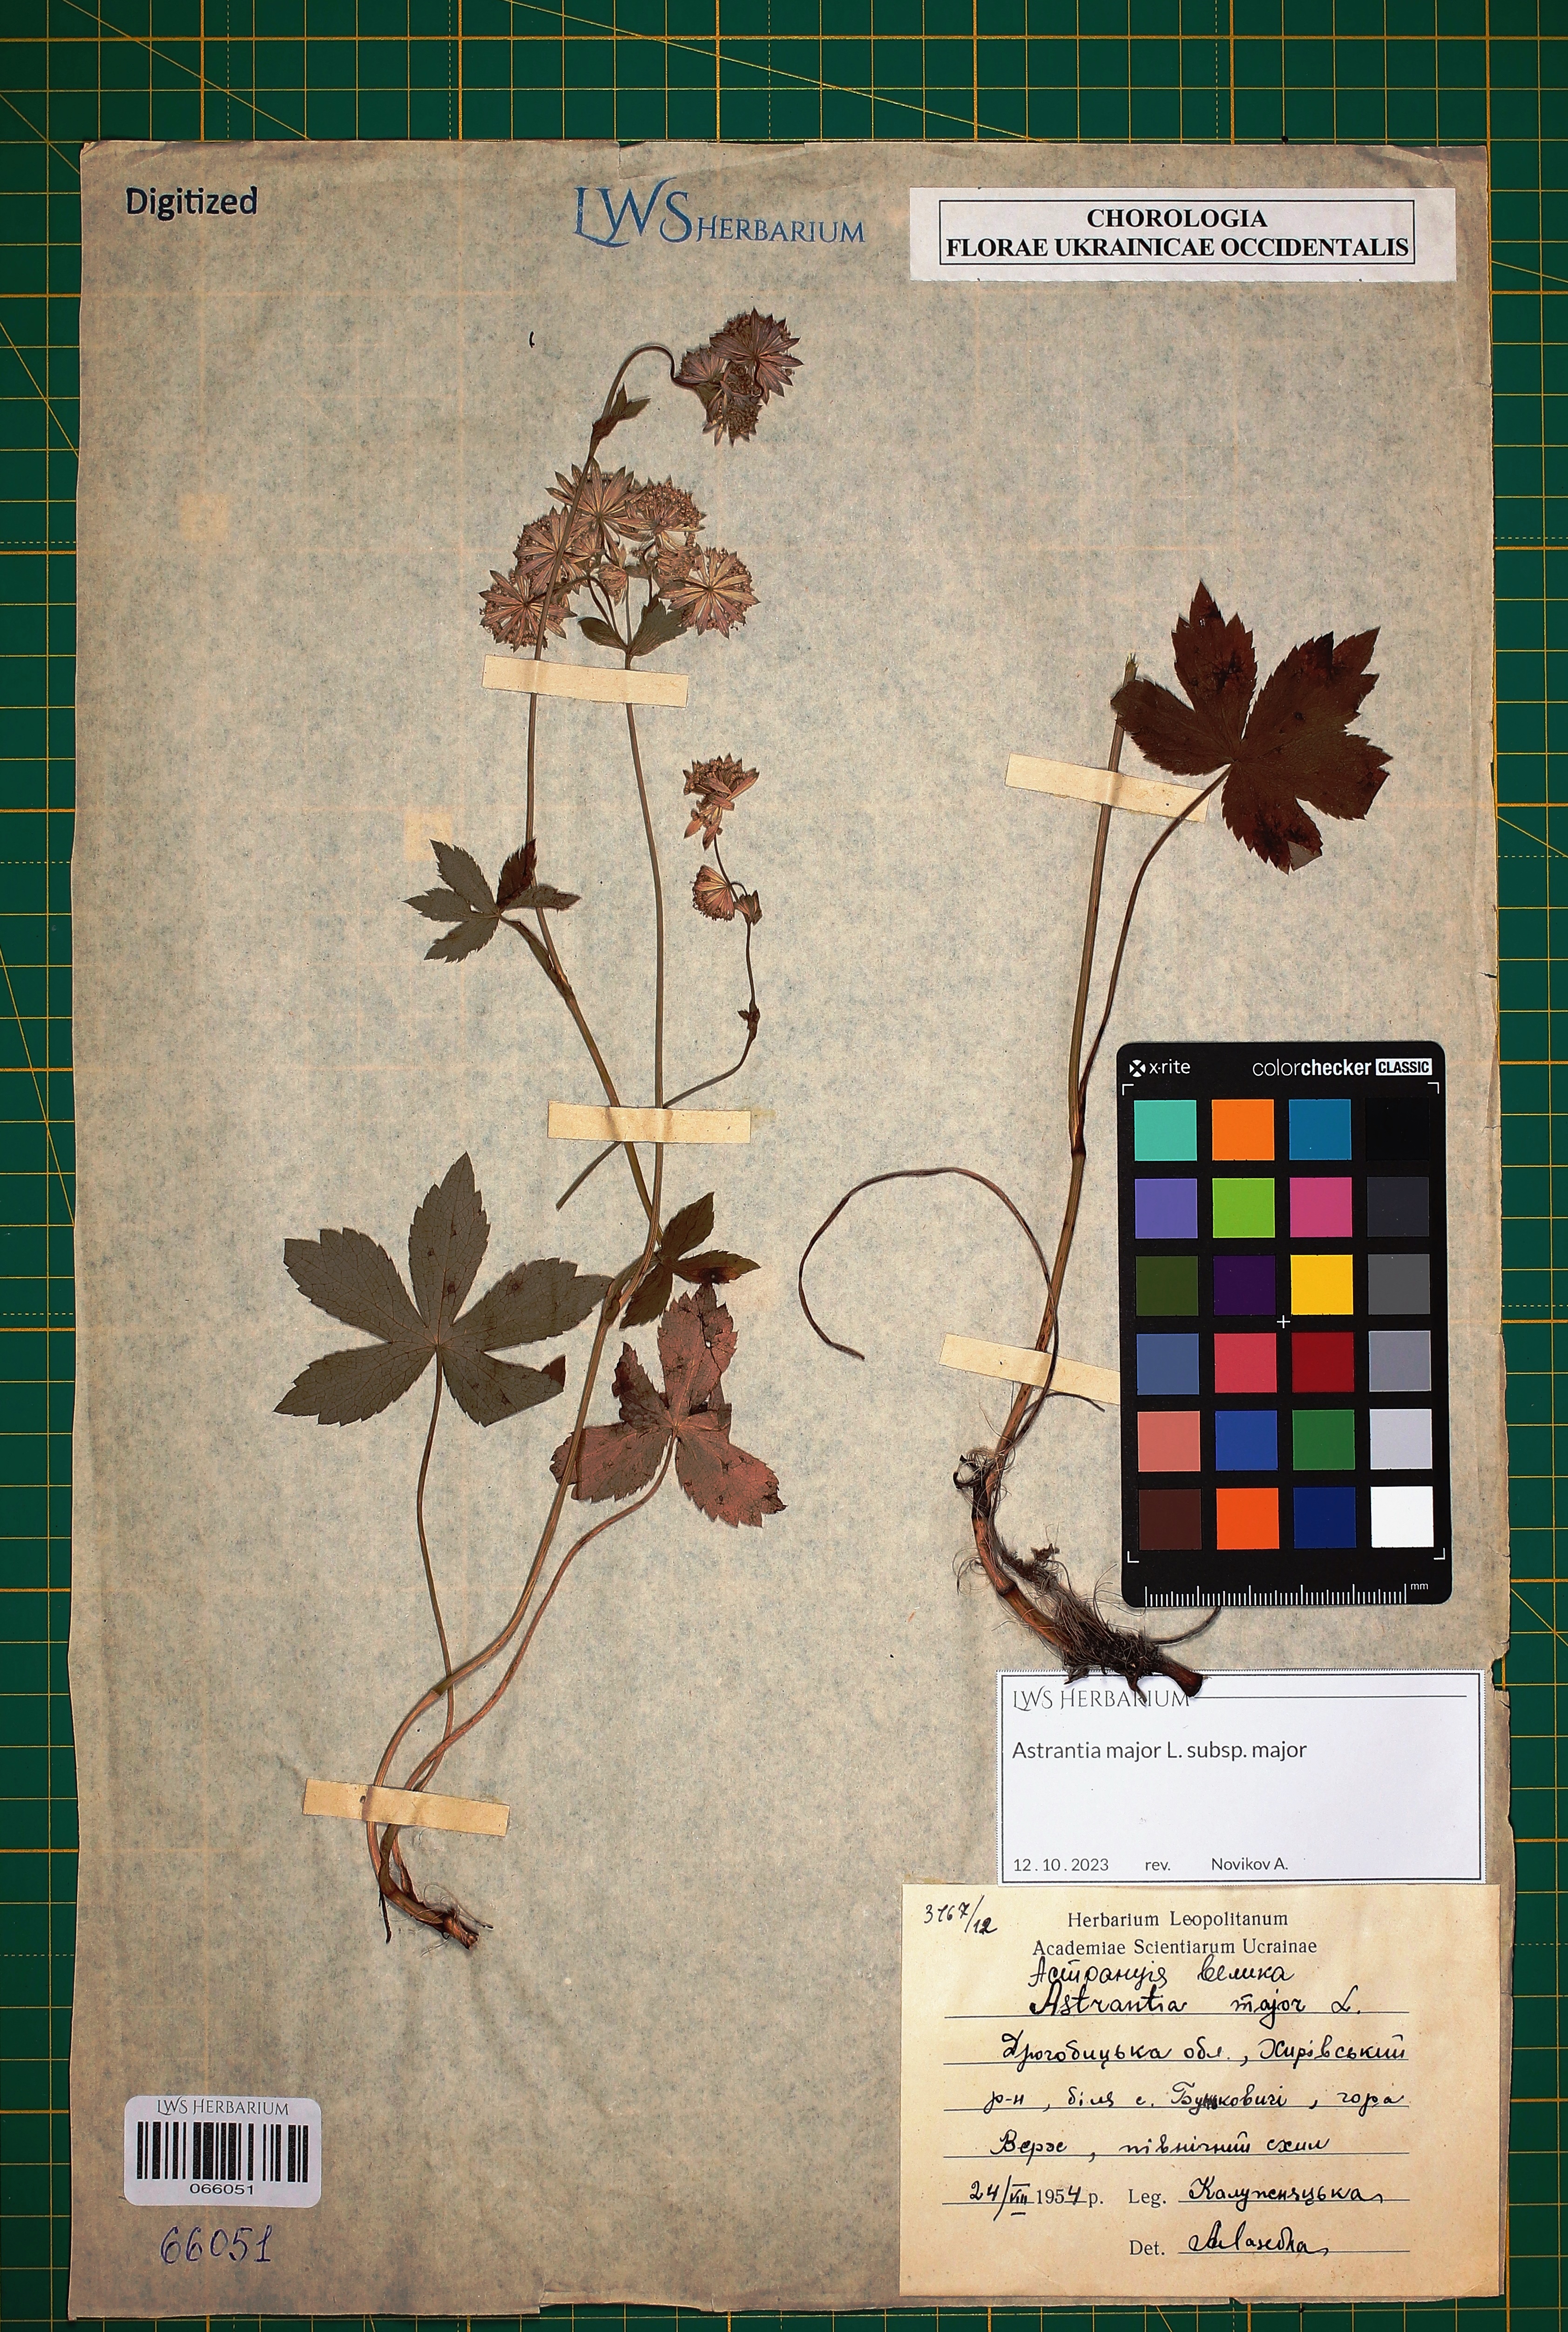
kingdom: Plantae
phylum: Tracheophyta
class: Magnoliopsida
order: Apiales
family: Apiaceae
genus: Astrantia
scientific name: Astrantia major
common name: Greater masterwort
